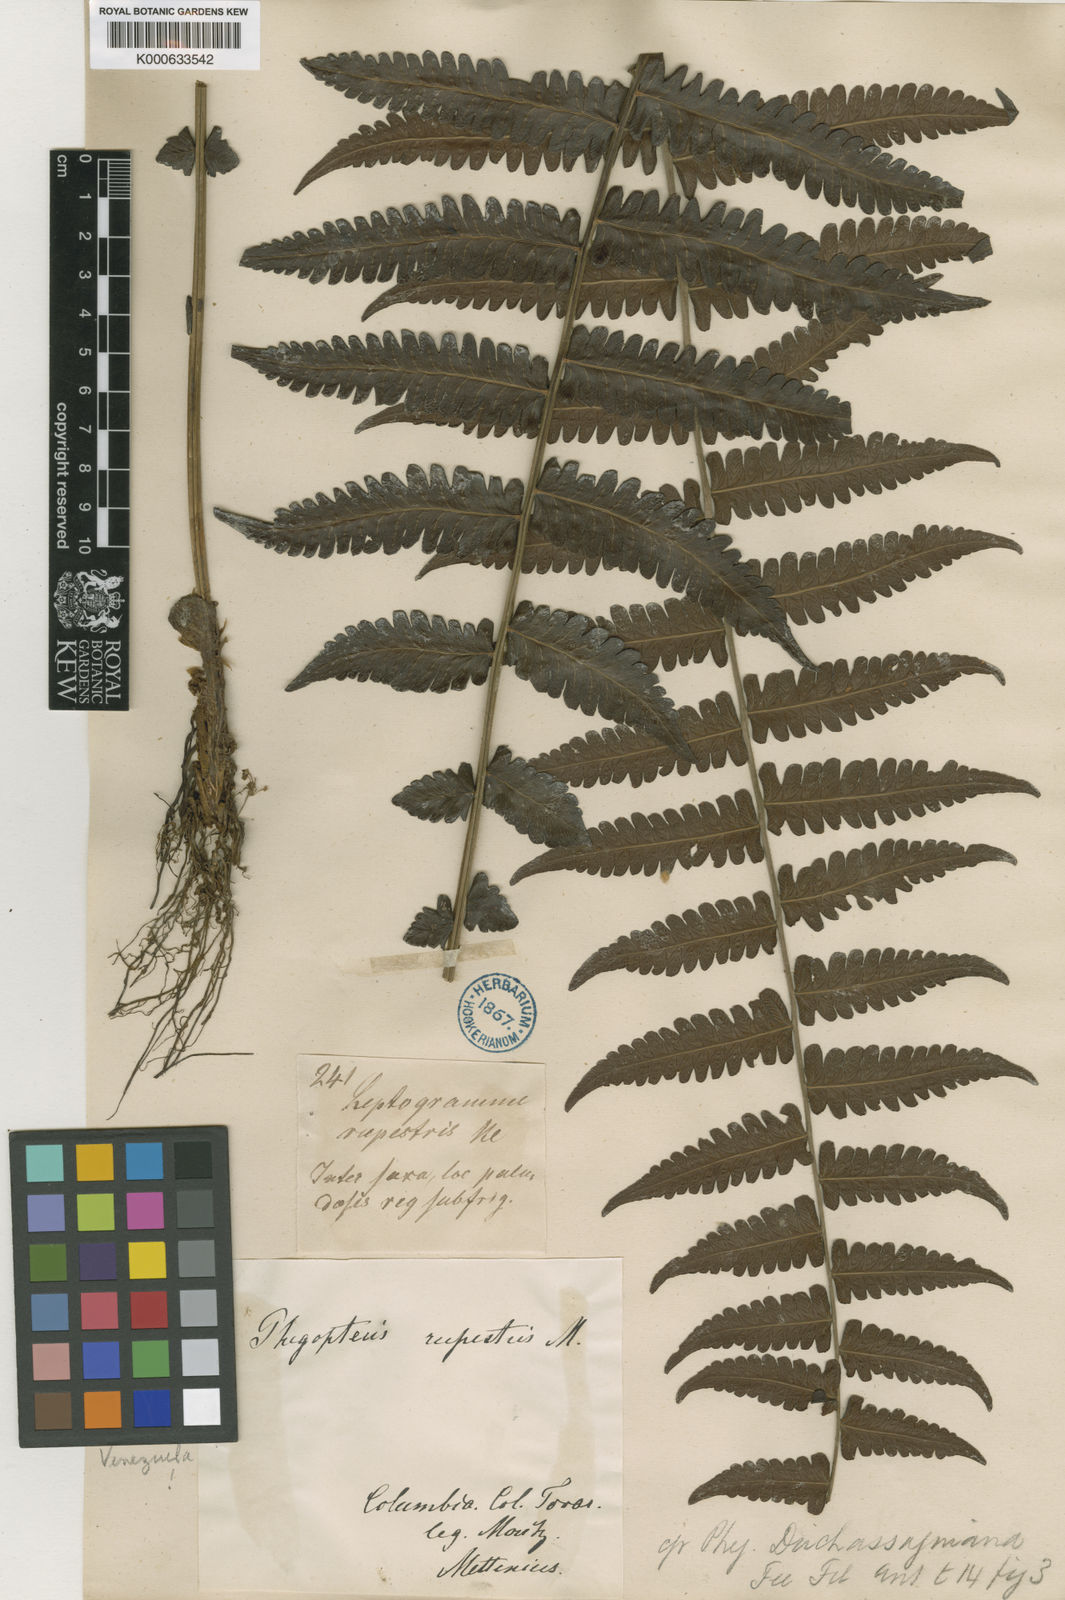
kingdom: Plantae
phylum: Tracheophyta
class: Polypodiopsida
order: Polypodiales
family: Thelypteridaceae
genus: Amauropelta
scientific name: Amauropelta diplazioides
